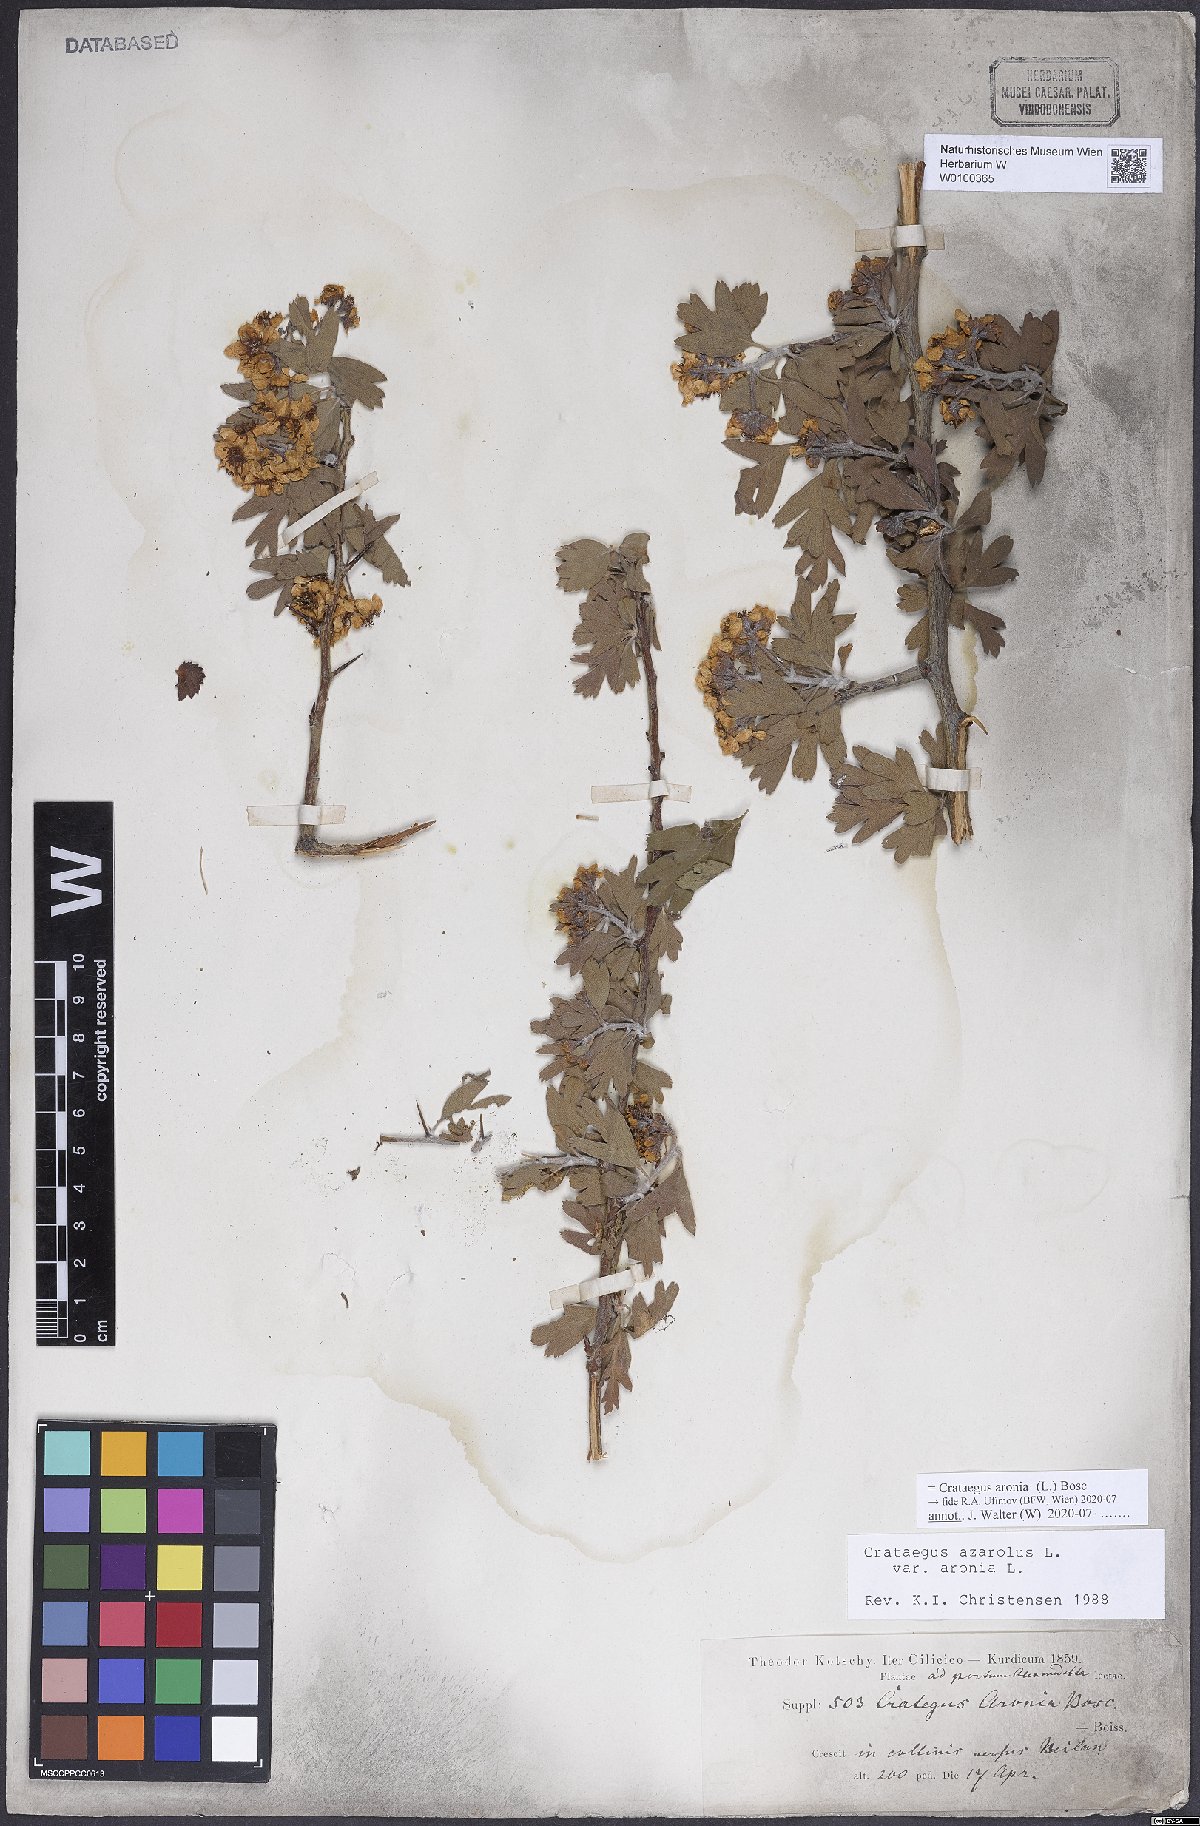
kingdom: Plantae
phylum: Tracheophyta
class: Magnoliopsida
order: Rosales
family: Rosaceae
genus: Crataegus
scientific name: Crataegus azarolus
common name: Azarole
